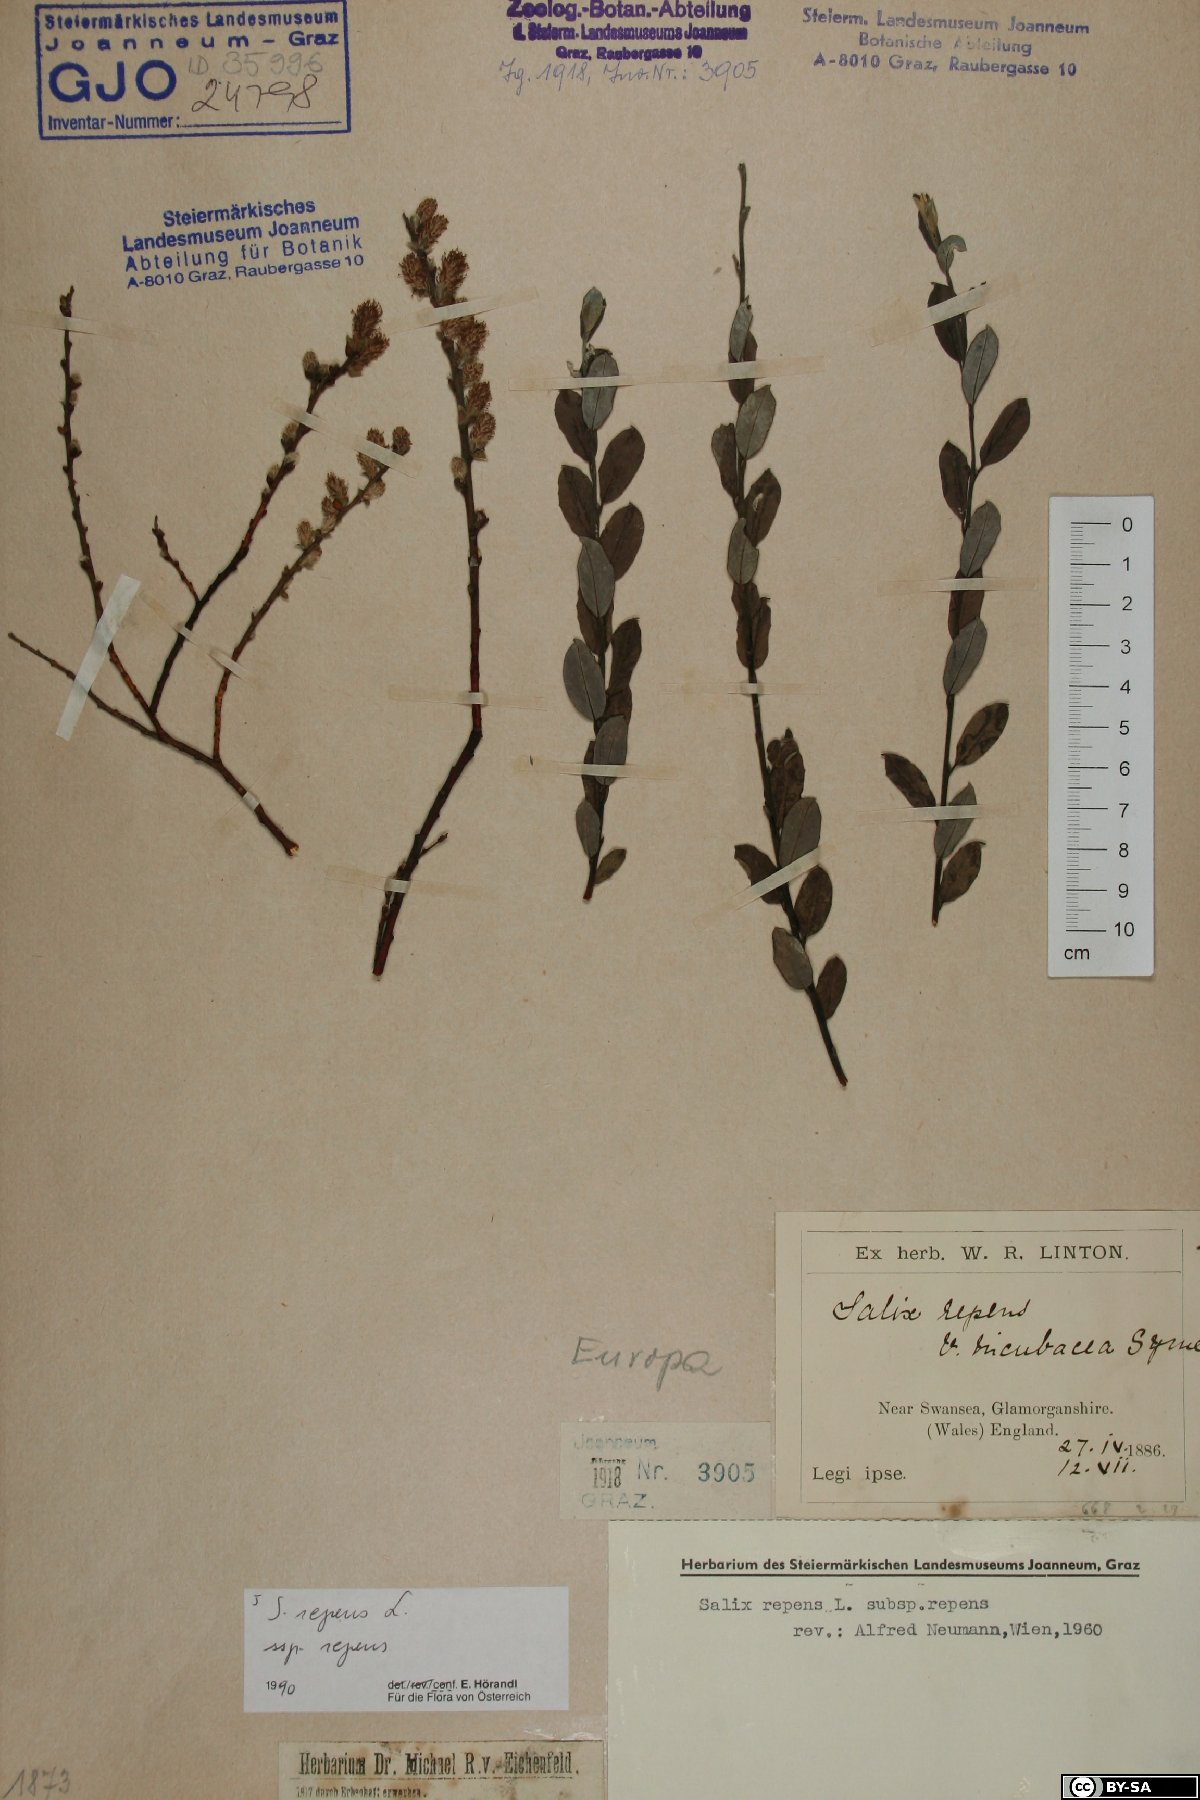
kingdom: Plantae
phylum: Tracheophyta
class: Magnoliopsida
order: Malpighiales
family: Salicaceae
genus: Salix
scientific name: Salix repens
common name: Creeping willow
